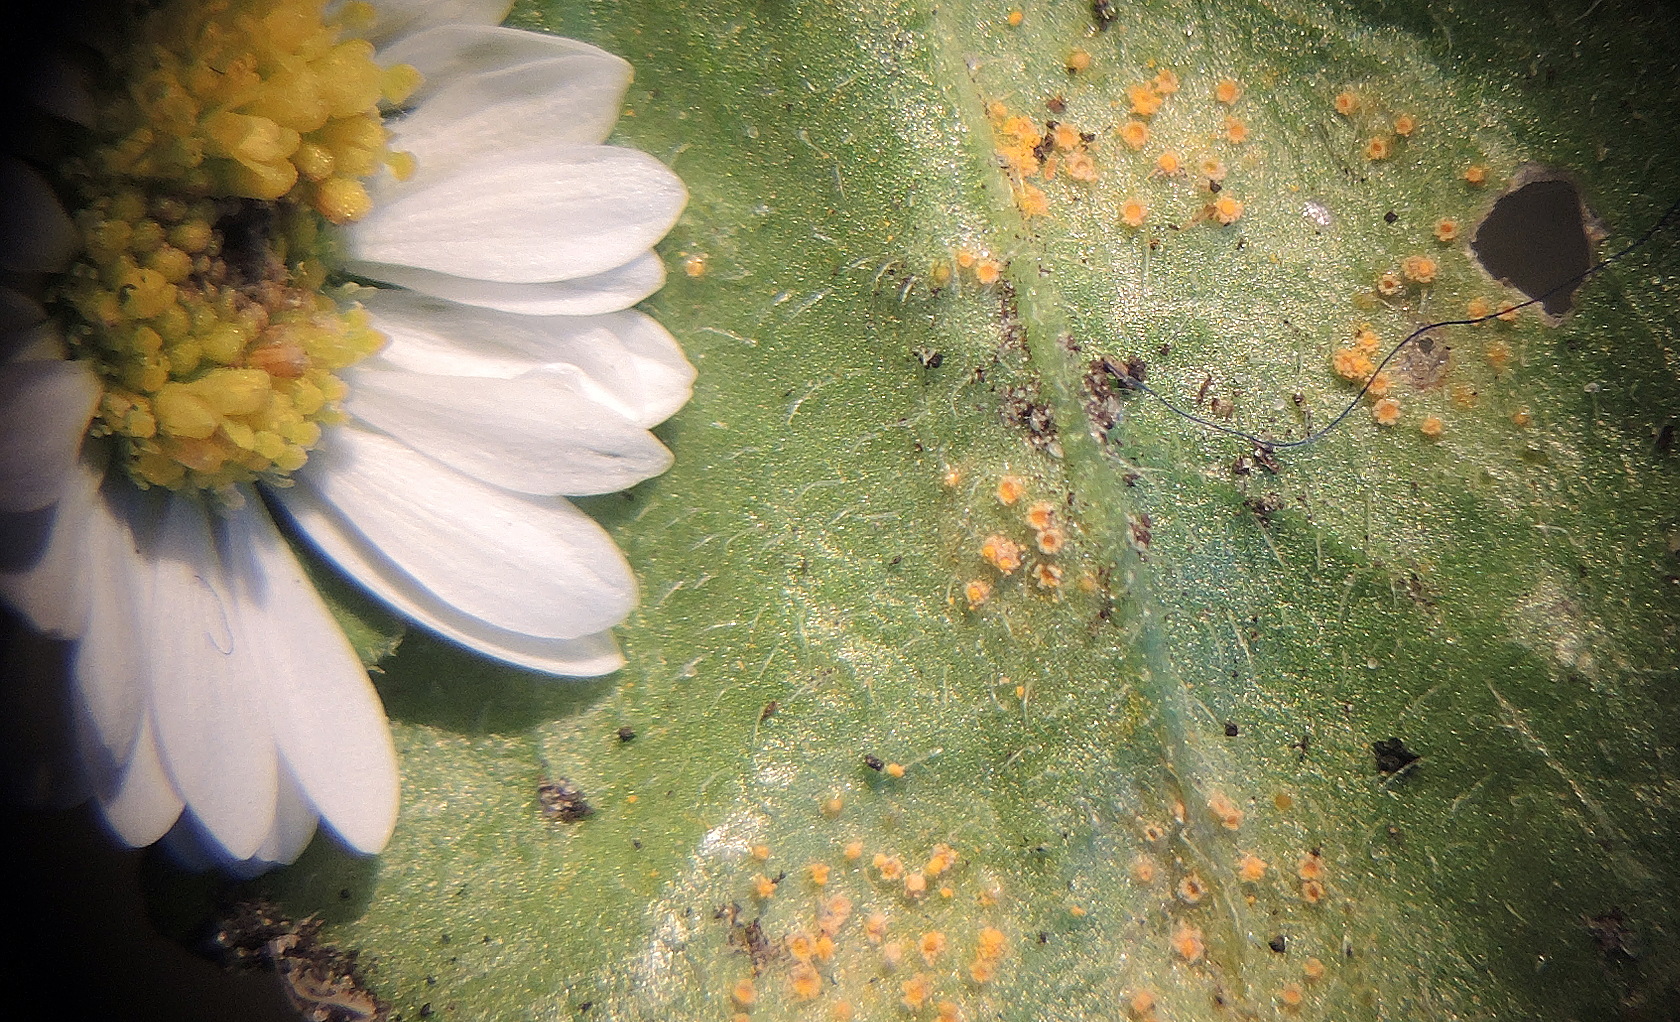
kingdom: Fungi
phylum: Basidiomycota
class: Pucciniomycetes
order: Pucciniales
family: Pucciniaceae
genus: Puccinia
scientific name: Puccinia distincta
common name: Daisy rust
